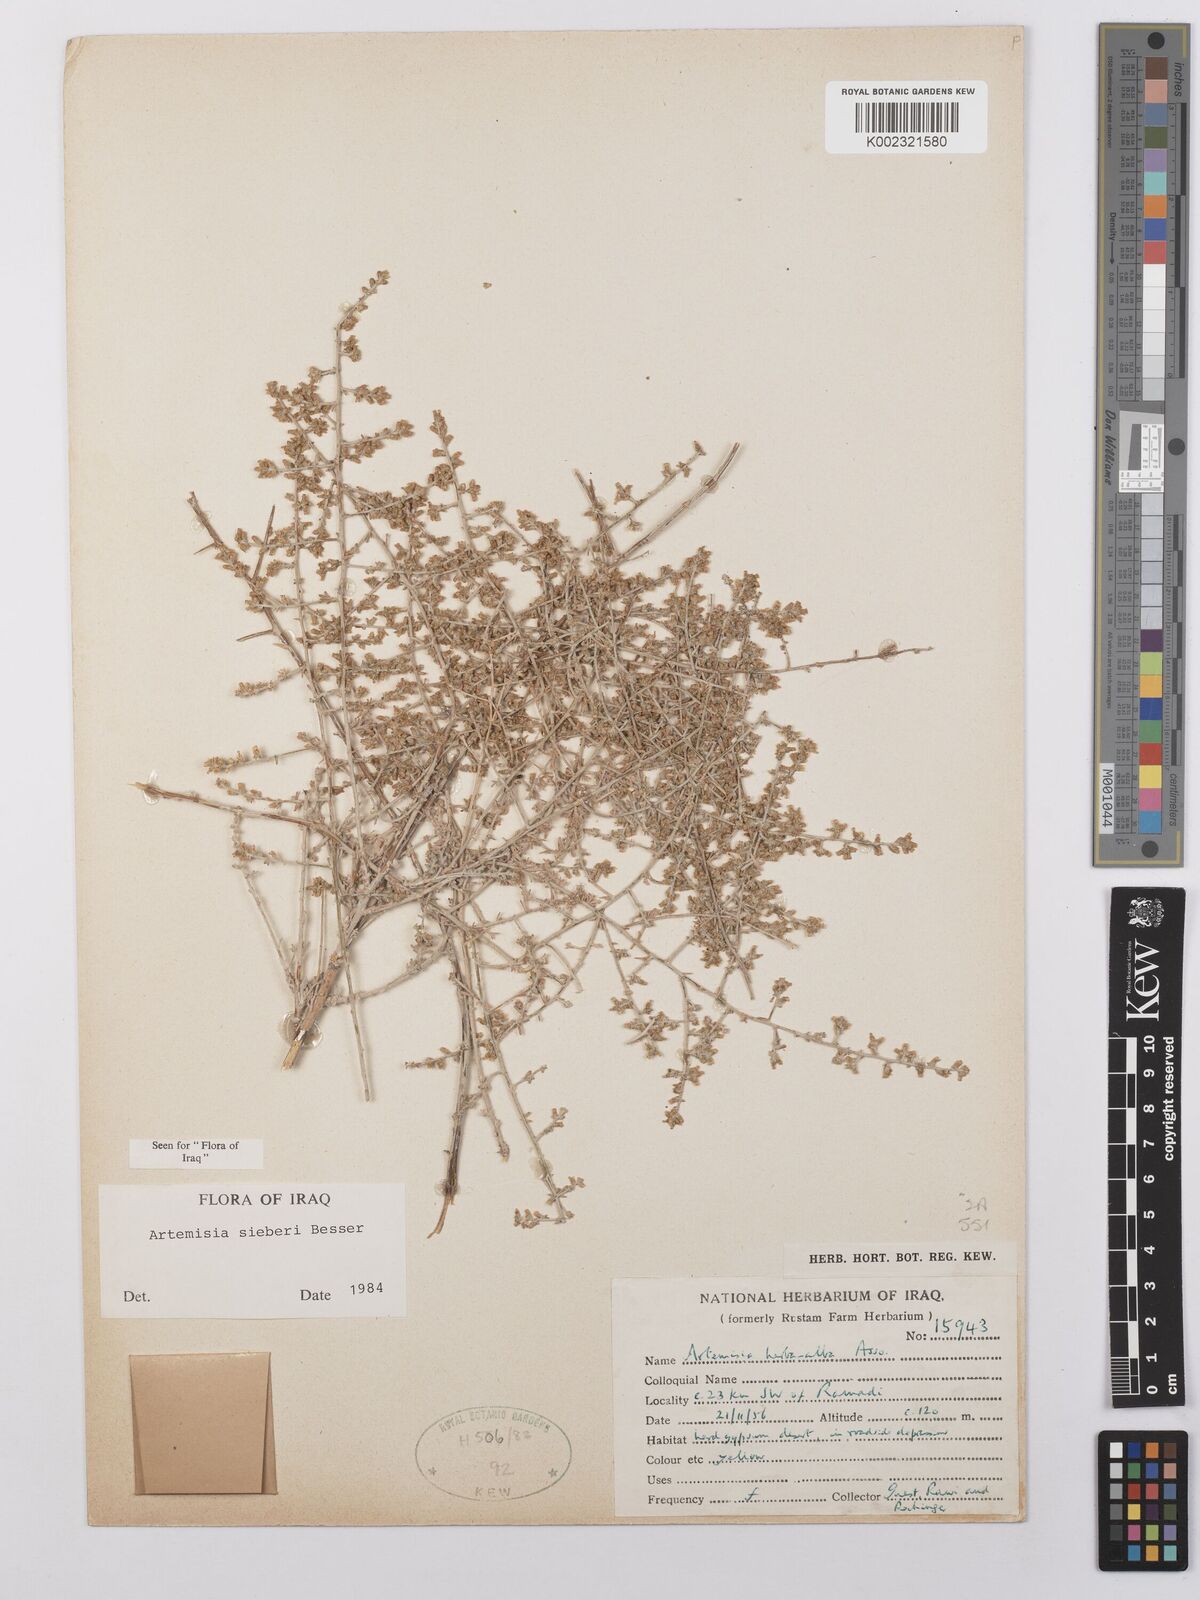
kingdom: Plantae
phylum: Tracheophyta
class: Magnoliopsida
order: Asterales
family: Asteraceae
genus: Artemisia
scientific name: Artemisia sieberi
